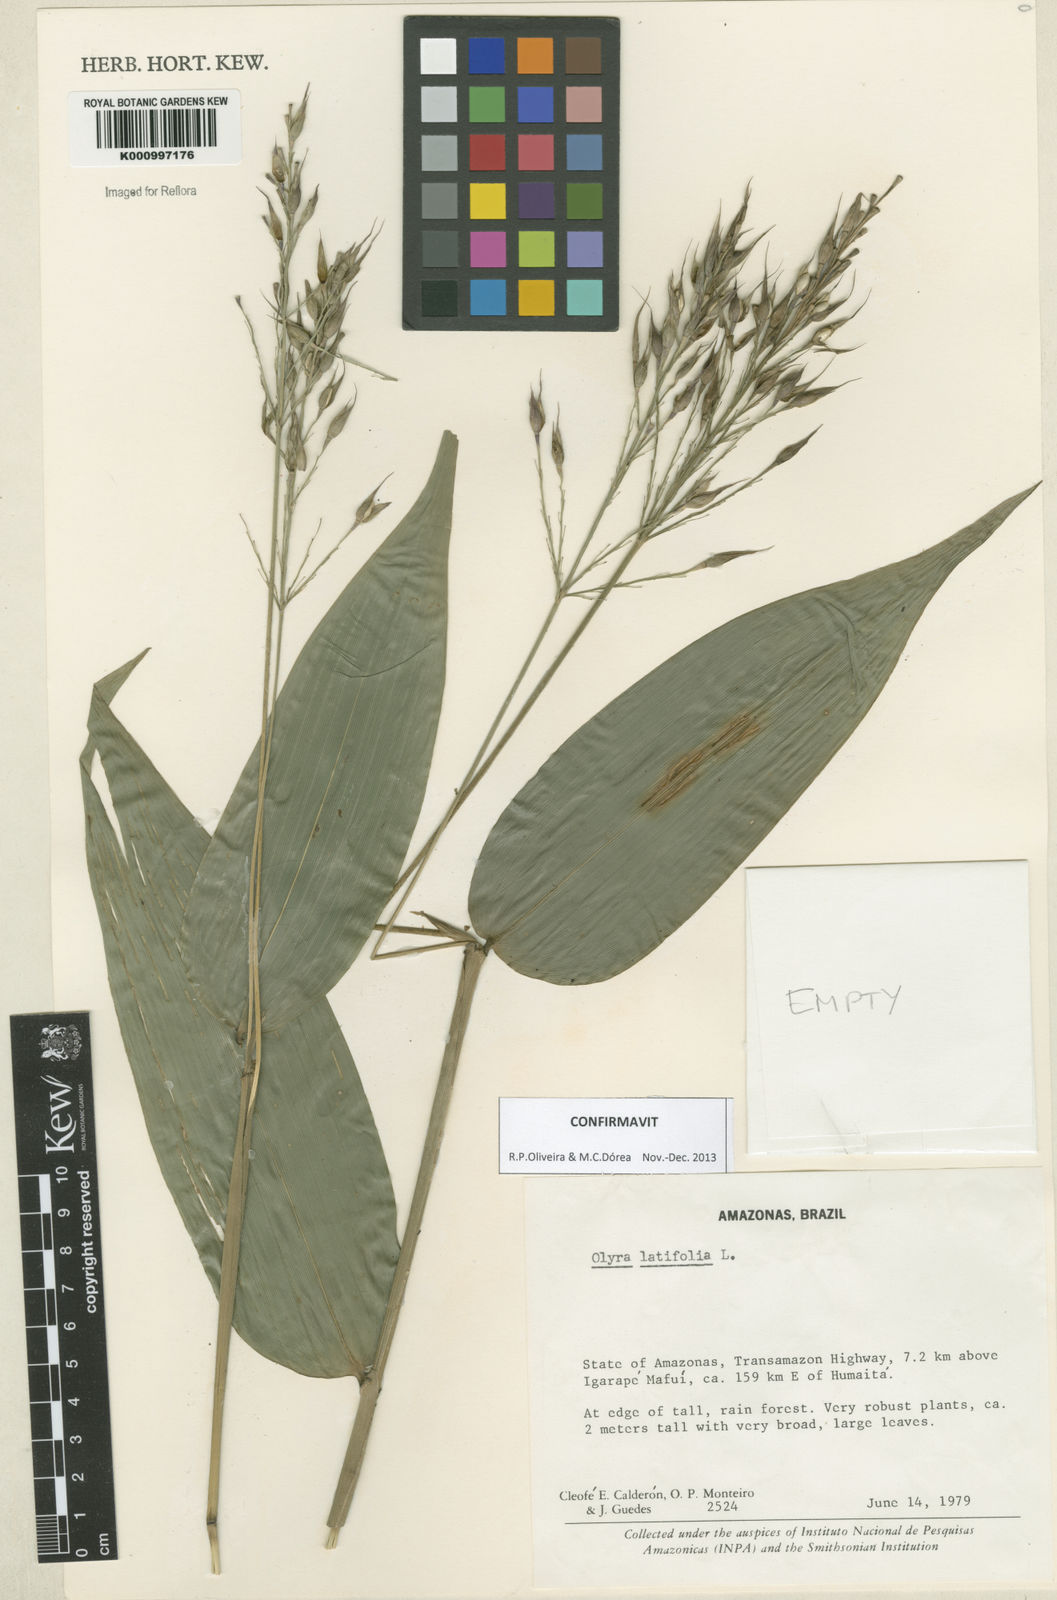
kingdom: Plantae
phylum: Tracheophyta
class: Liliopsida
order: Poales
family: Poaceae
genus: Olyra
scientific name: Olyra latifolia
